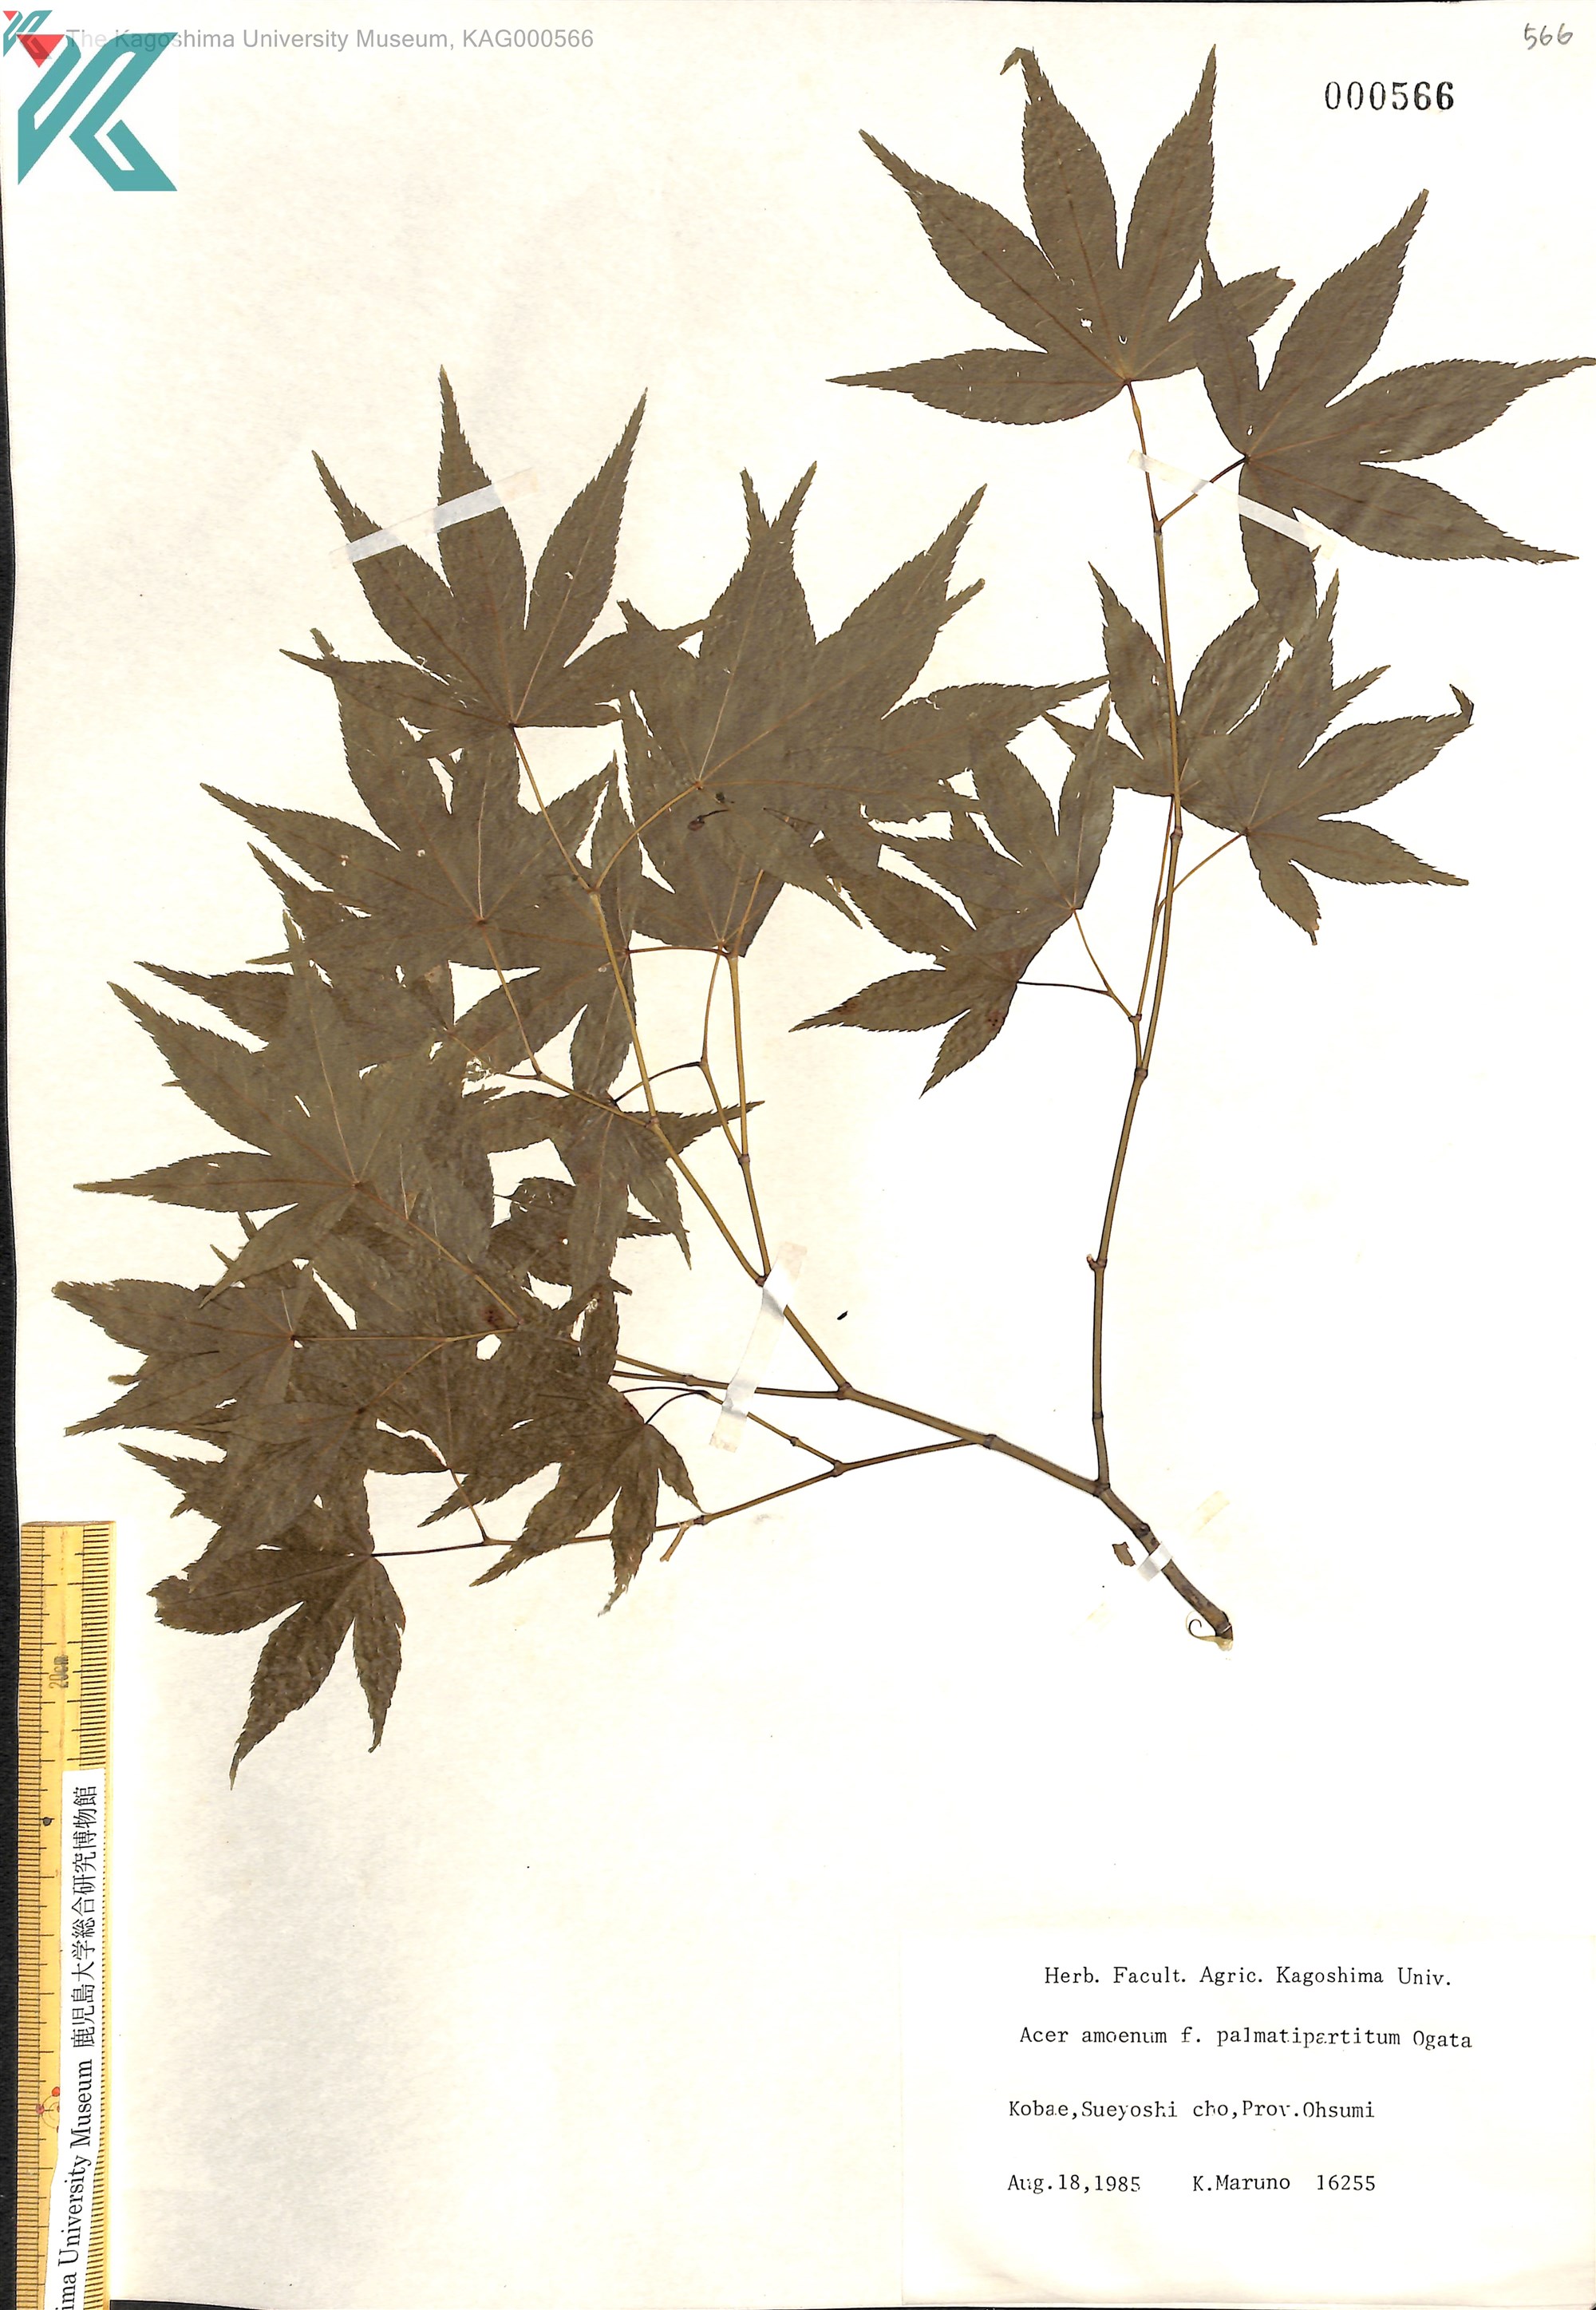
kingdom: Plantae
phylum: Tracheophyta
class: Magnoliopsida
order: Sapindales
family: Sapindaceae
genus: Acer
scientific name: Acer palmatum
